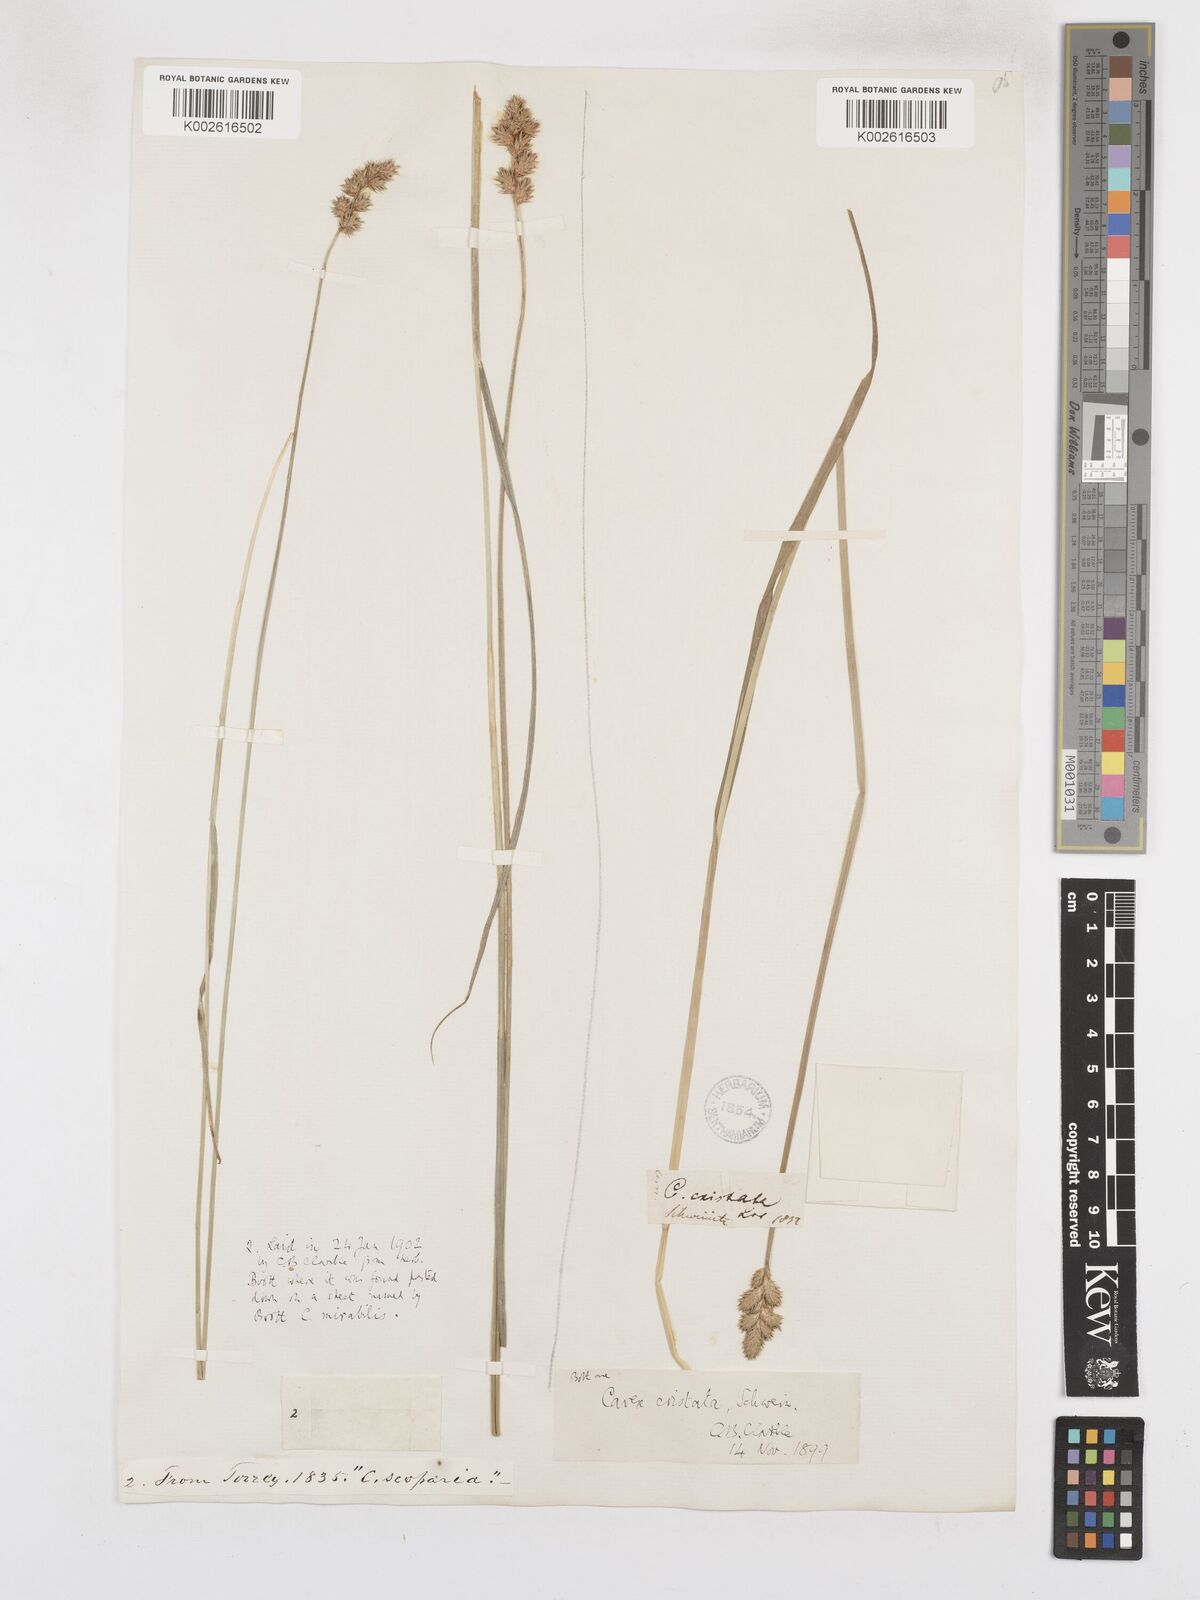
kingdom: Plantae
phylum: Tracheophyta
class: Liliopsida
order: Poales
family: Cyperaceae
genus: Carex
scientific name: Carex cristatella
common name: Crested oval sedge
